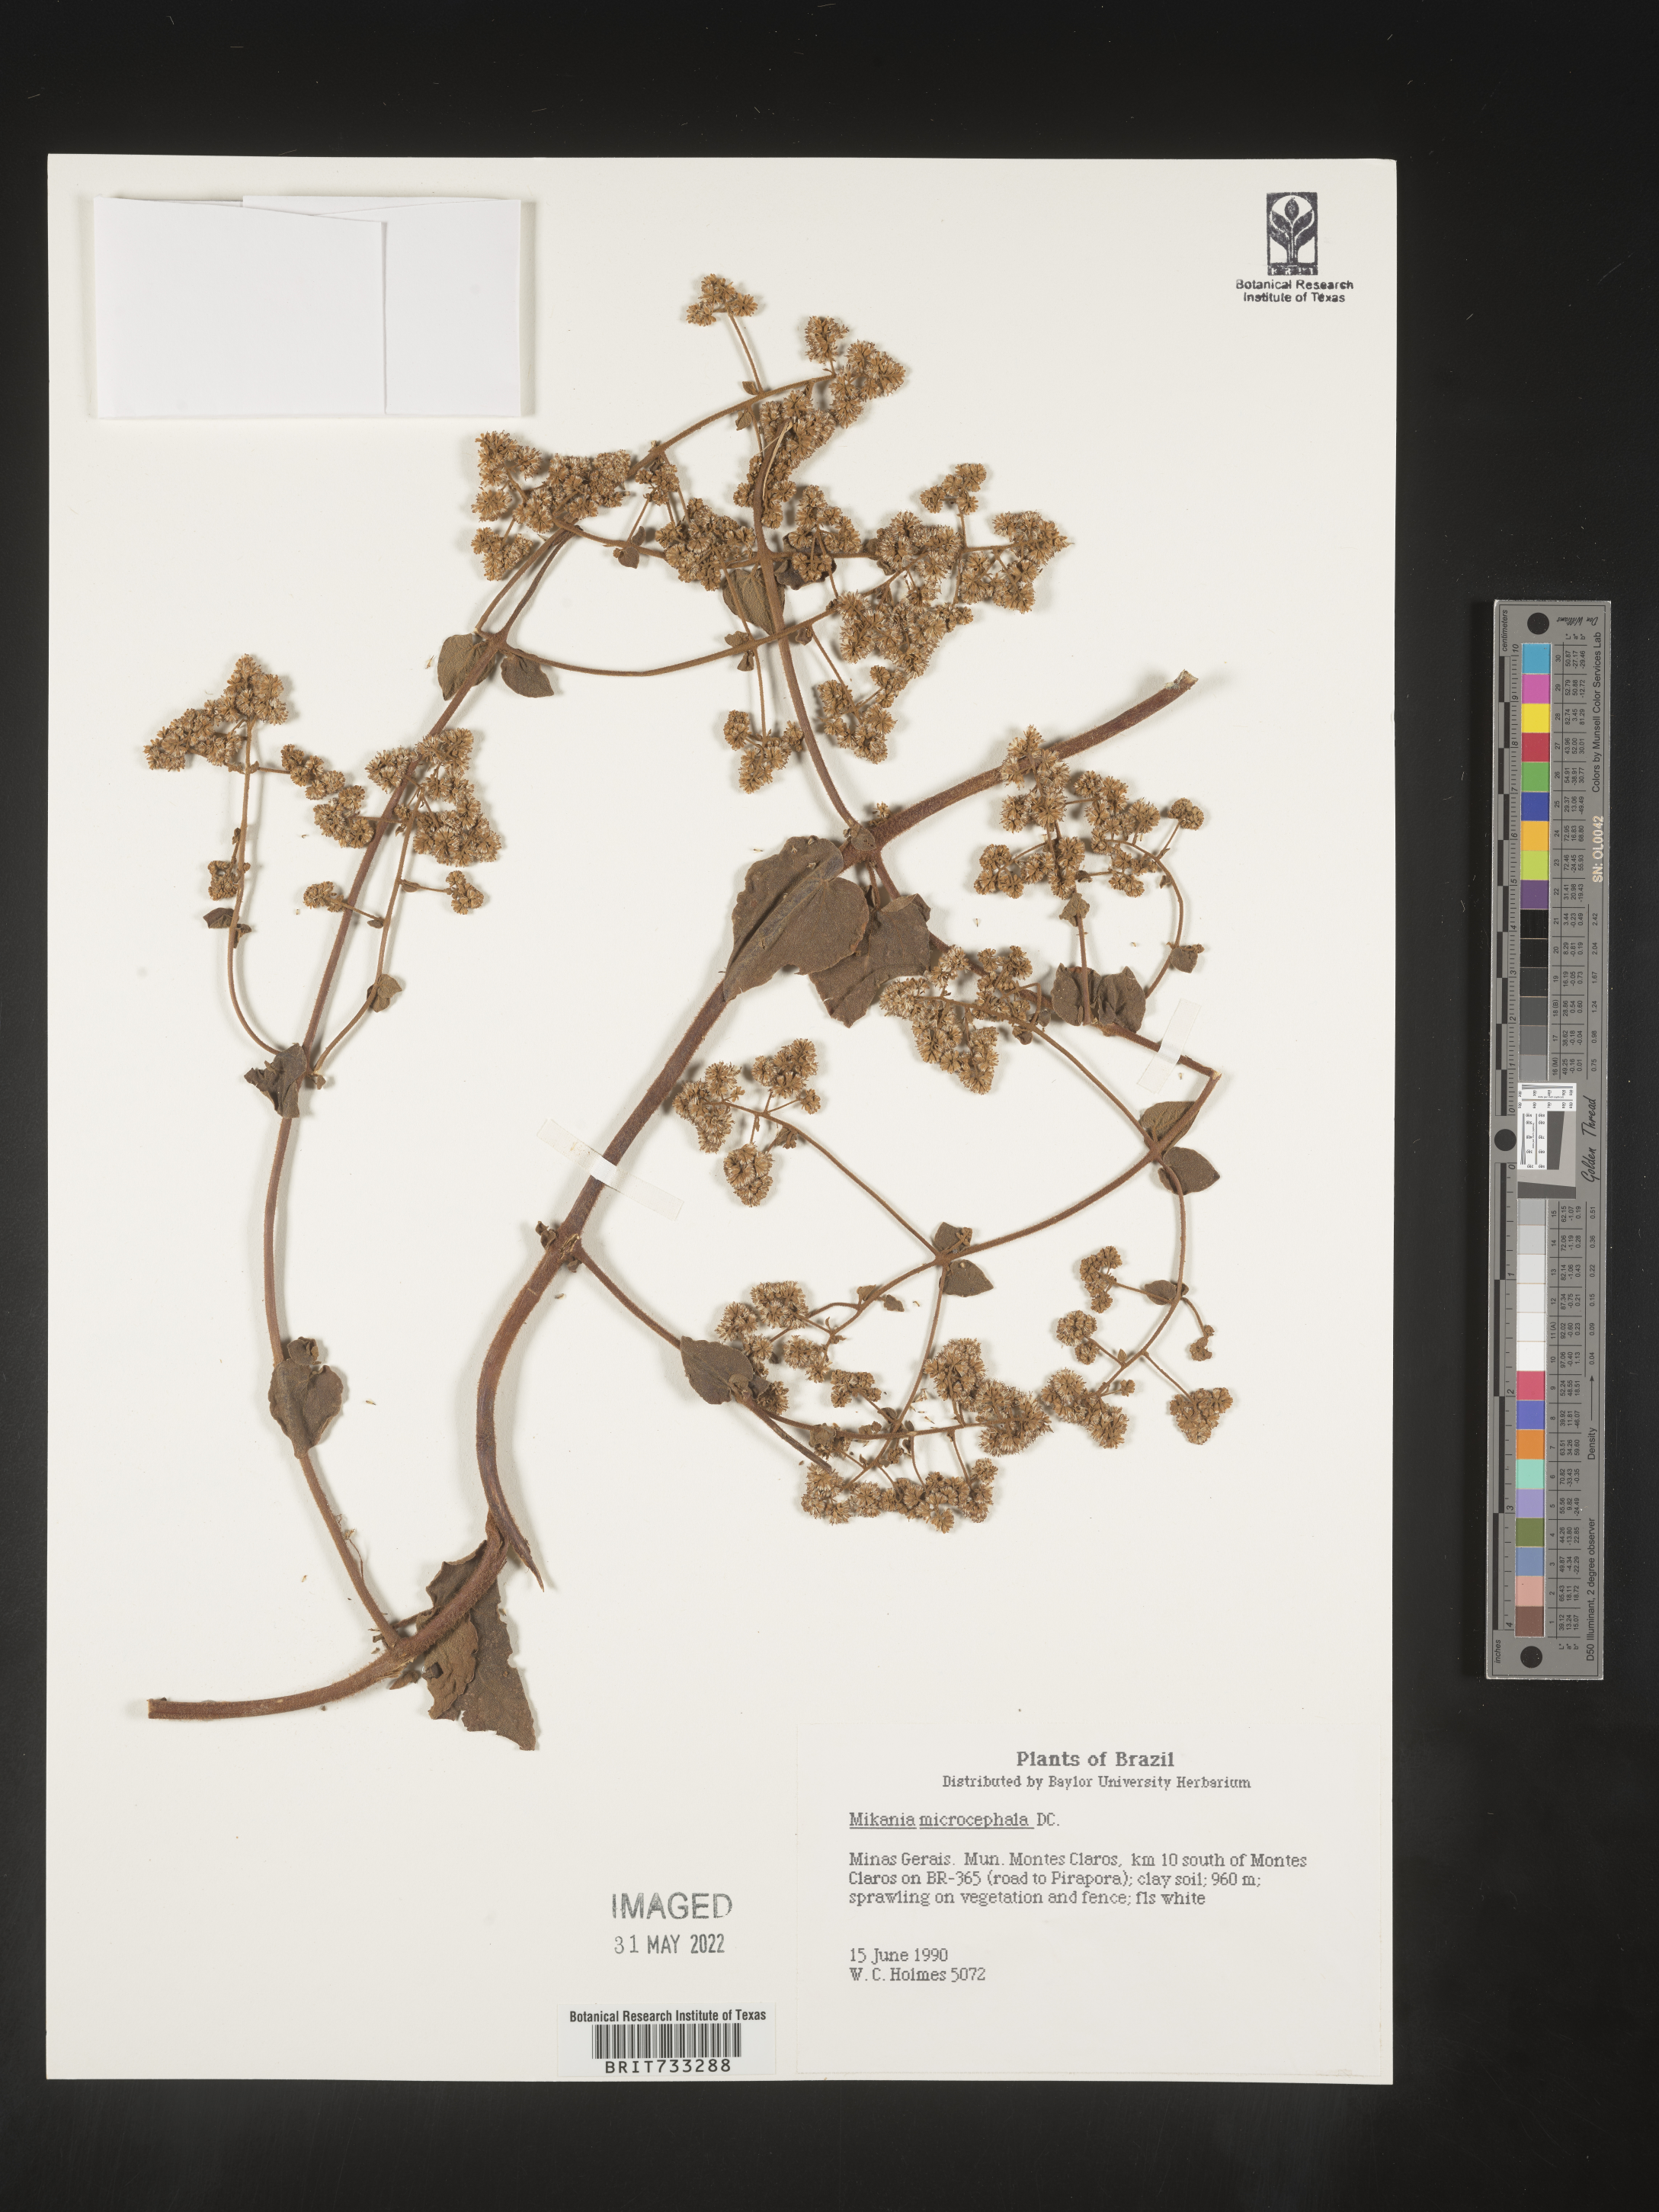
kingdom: Plantae
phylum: Tracheophyta
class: Magnoliopsida
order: Asterales
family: Asteraceae
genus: Mikania
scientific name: Mikania
